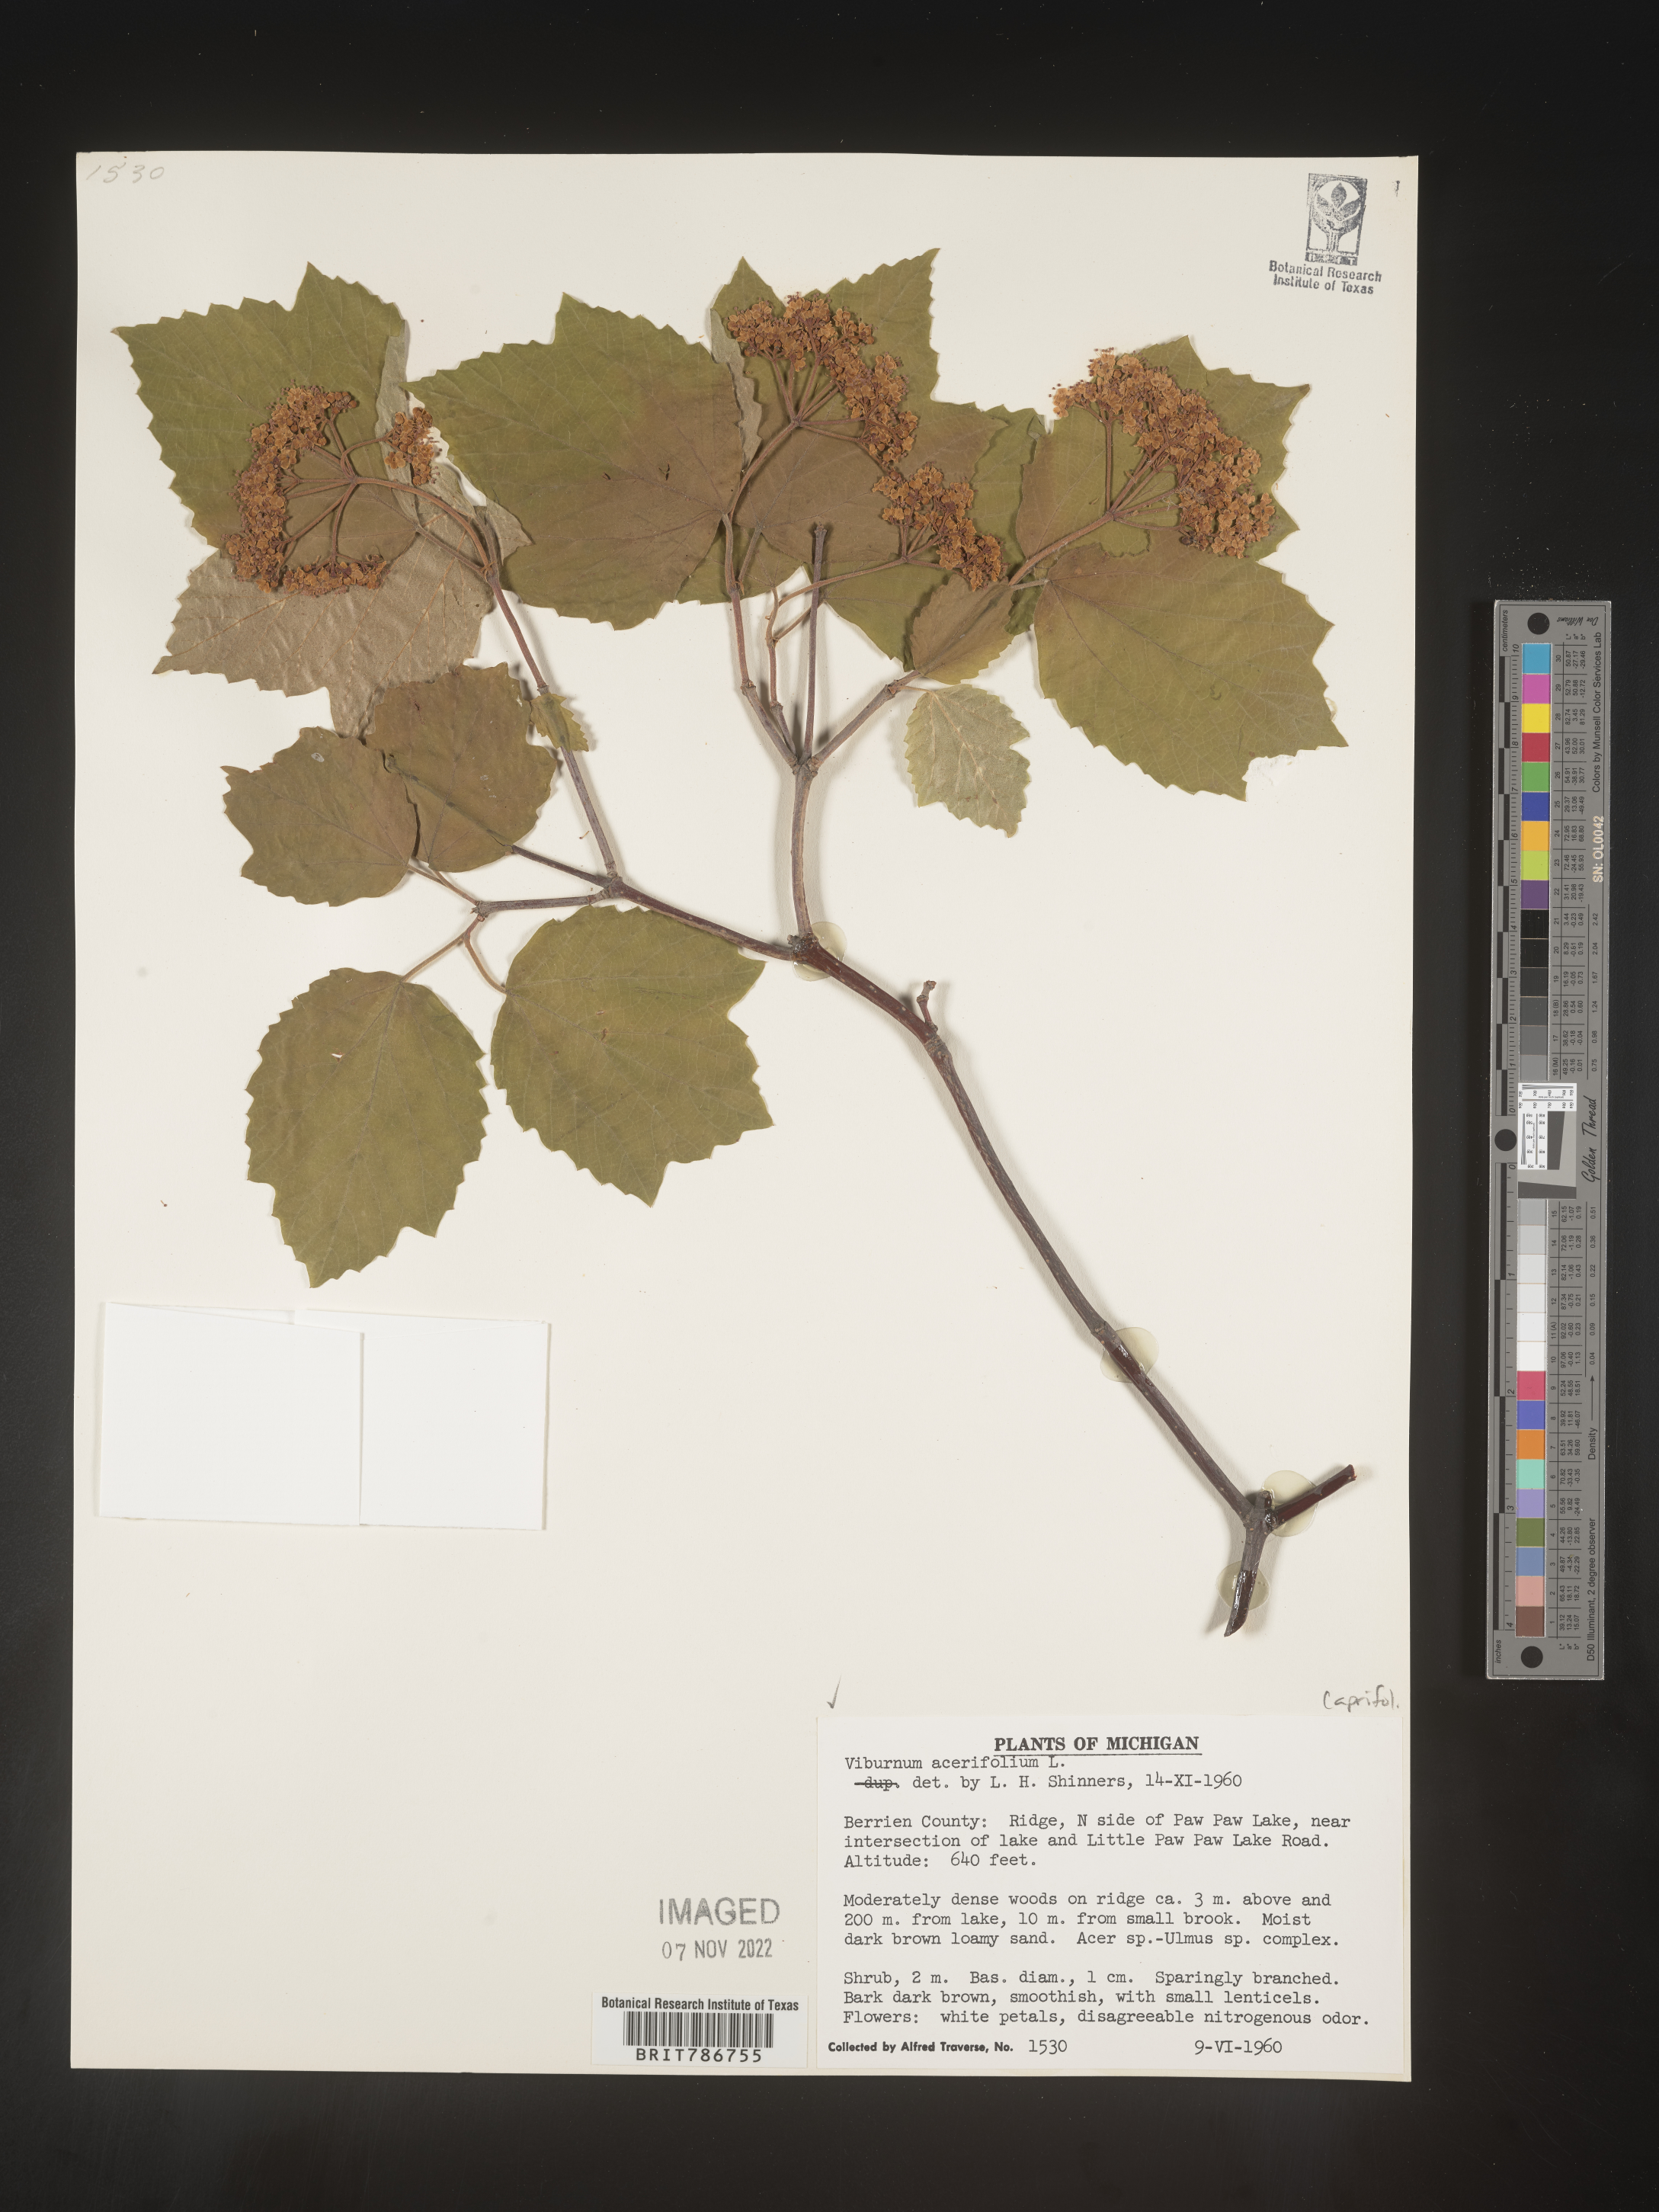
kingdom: Plantae
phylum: Tracheophyta
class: Magnoliopsida
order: Dipsacales
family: Viburnaceae
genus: Viburnum
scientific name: Viburnum acerifolium
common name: Dockmackie
